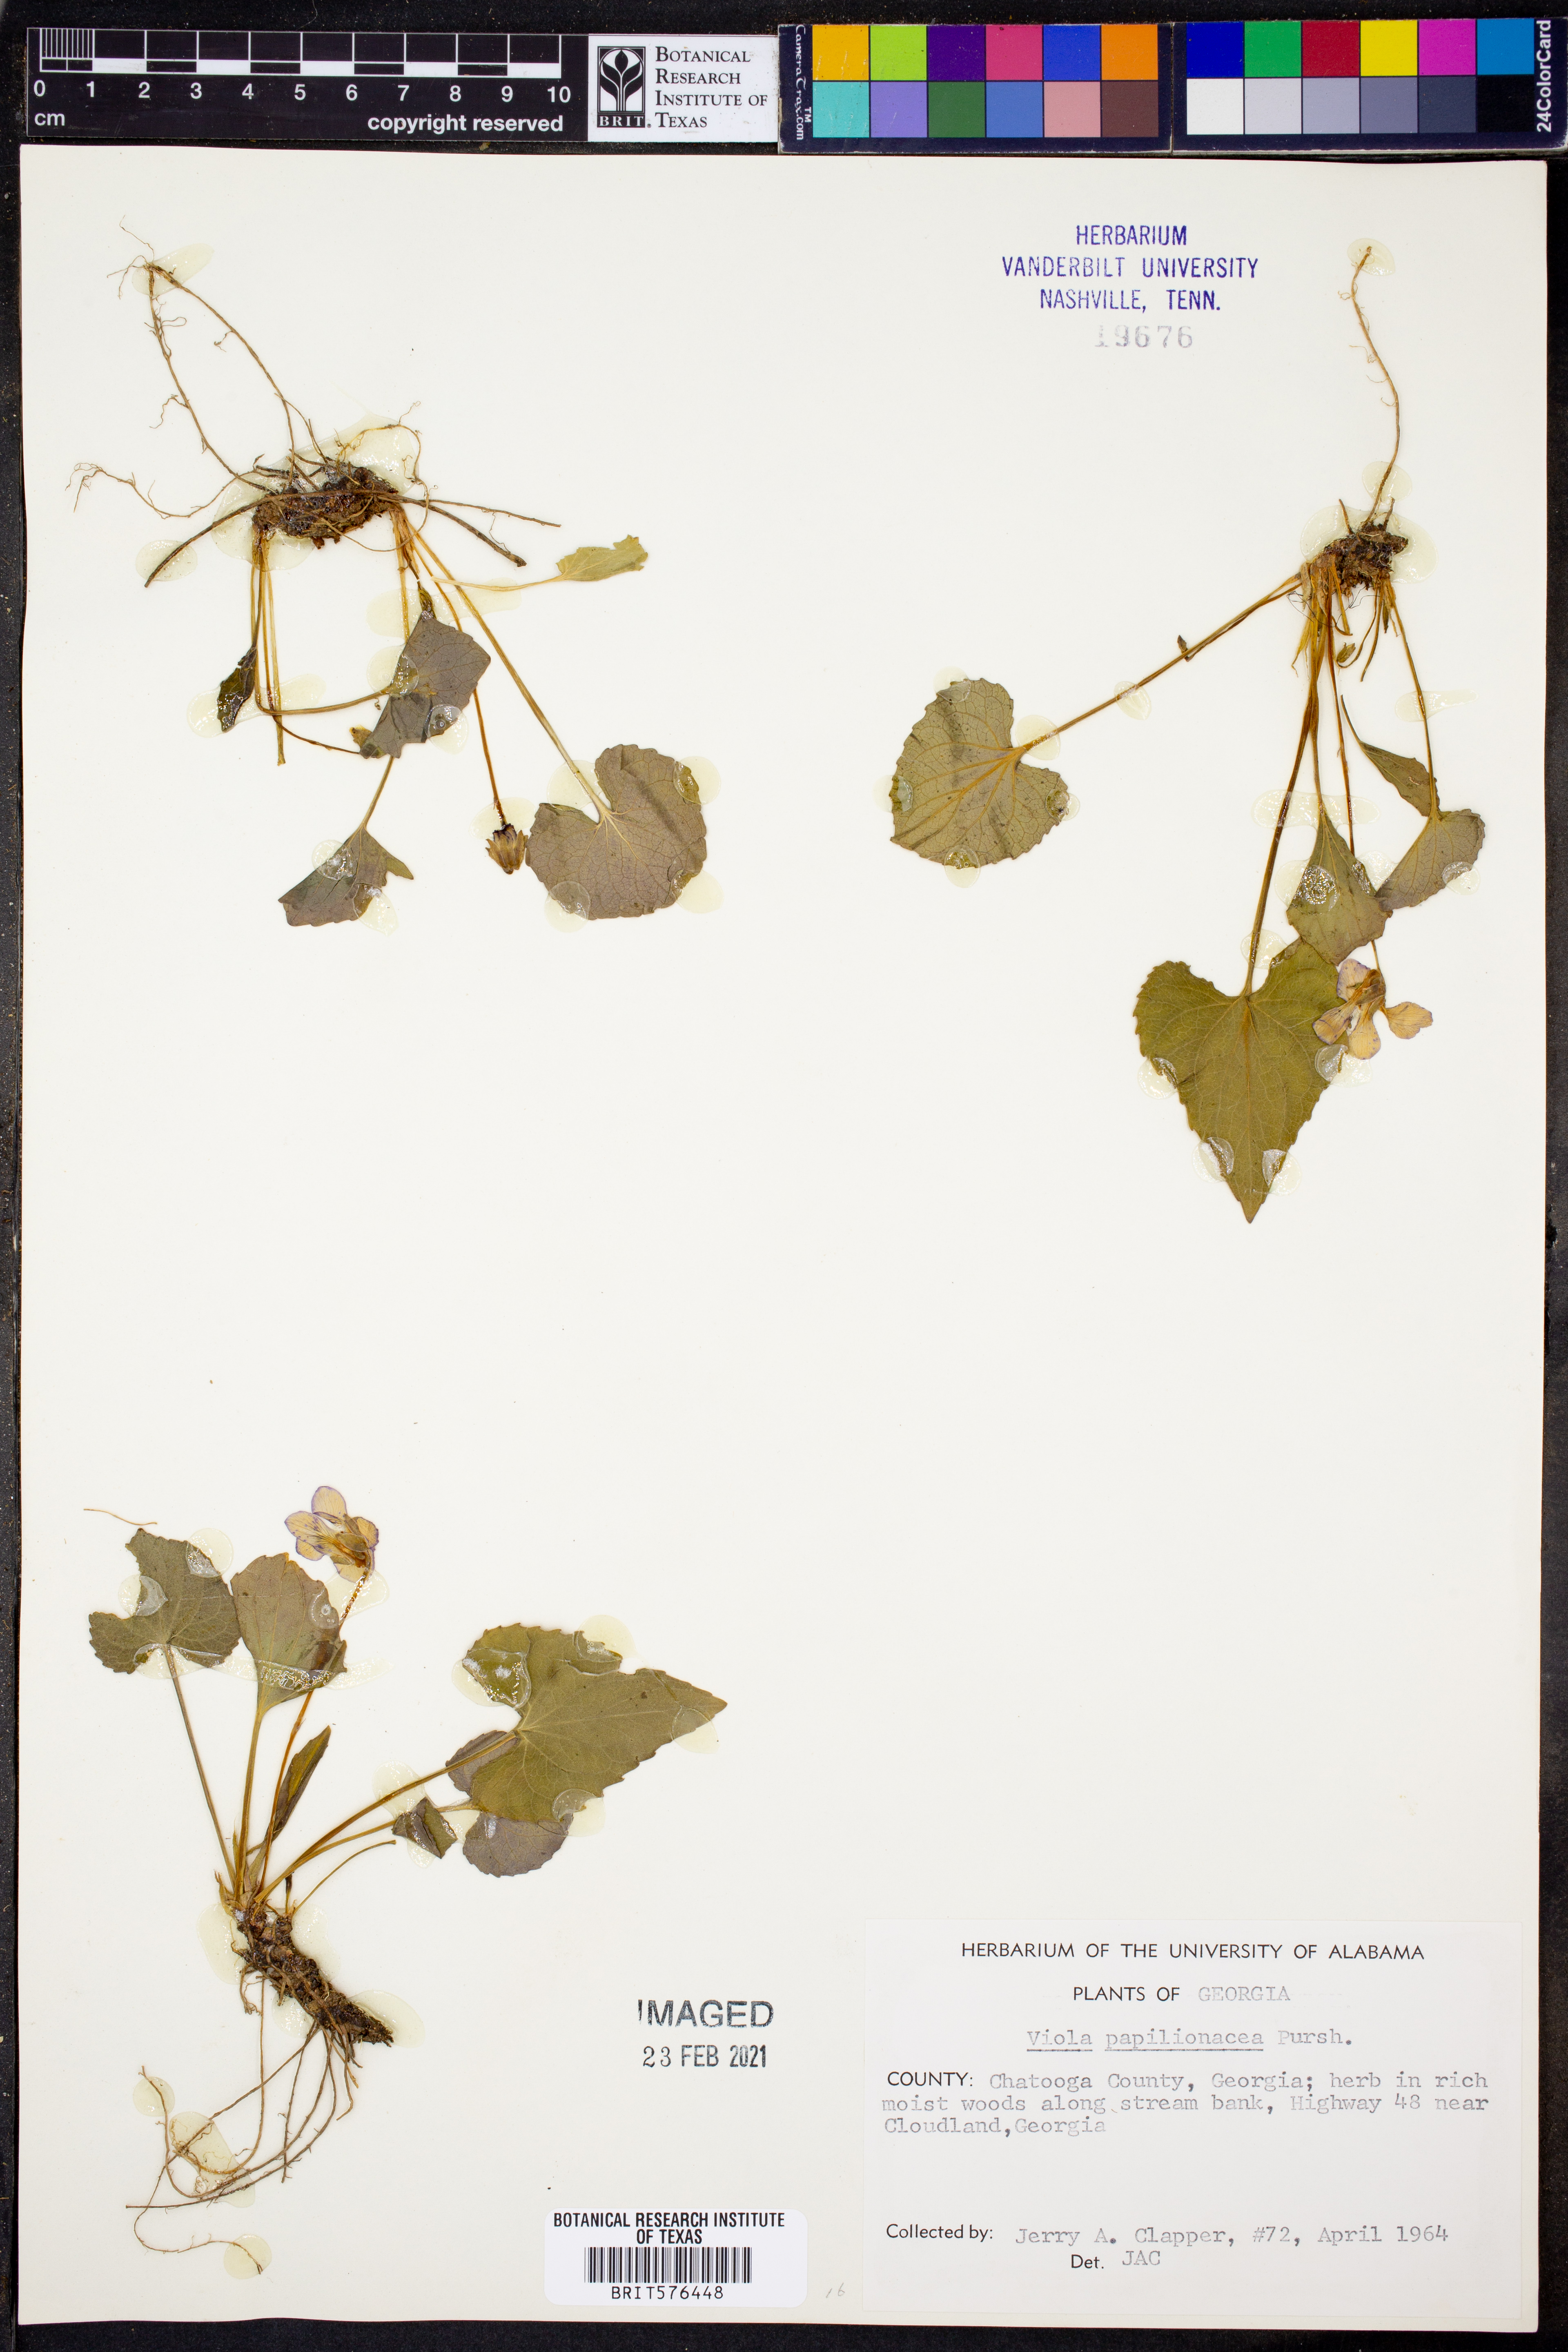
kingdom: Plantae
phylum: Tracheophyta
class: Magnoliopsida
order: Malpighiales
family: Violaceae
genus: Viola
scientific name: Viola sororia
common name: Dooryard violet
